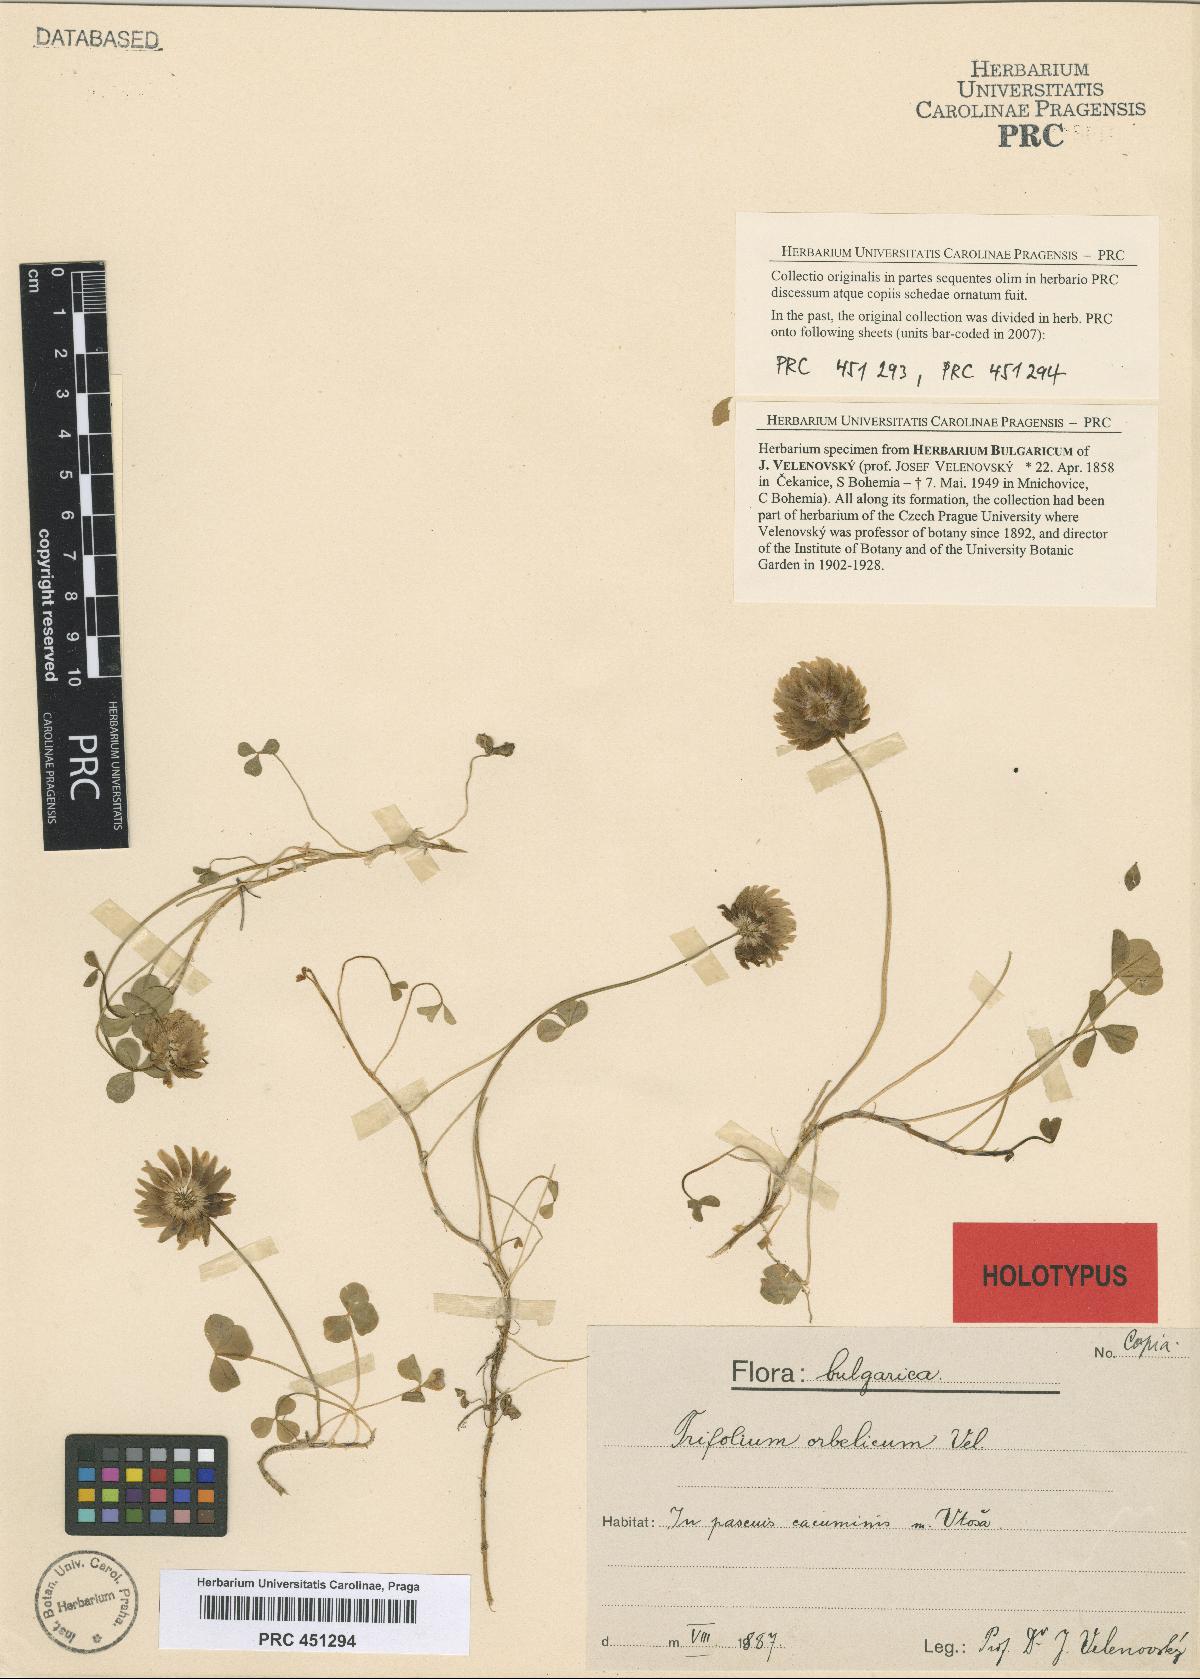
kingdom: Plantae
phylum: Tracheophyta
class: Magnoliopsida
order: Fabales
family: Fabaceae
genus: Trifolium
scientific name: Trifolium orbelicum
